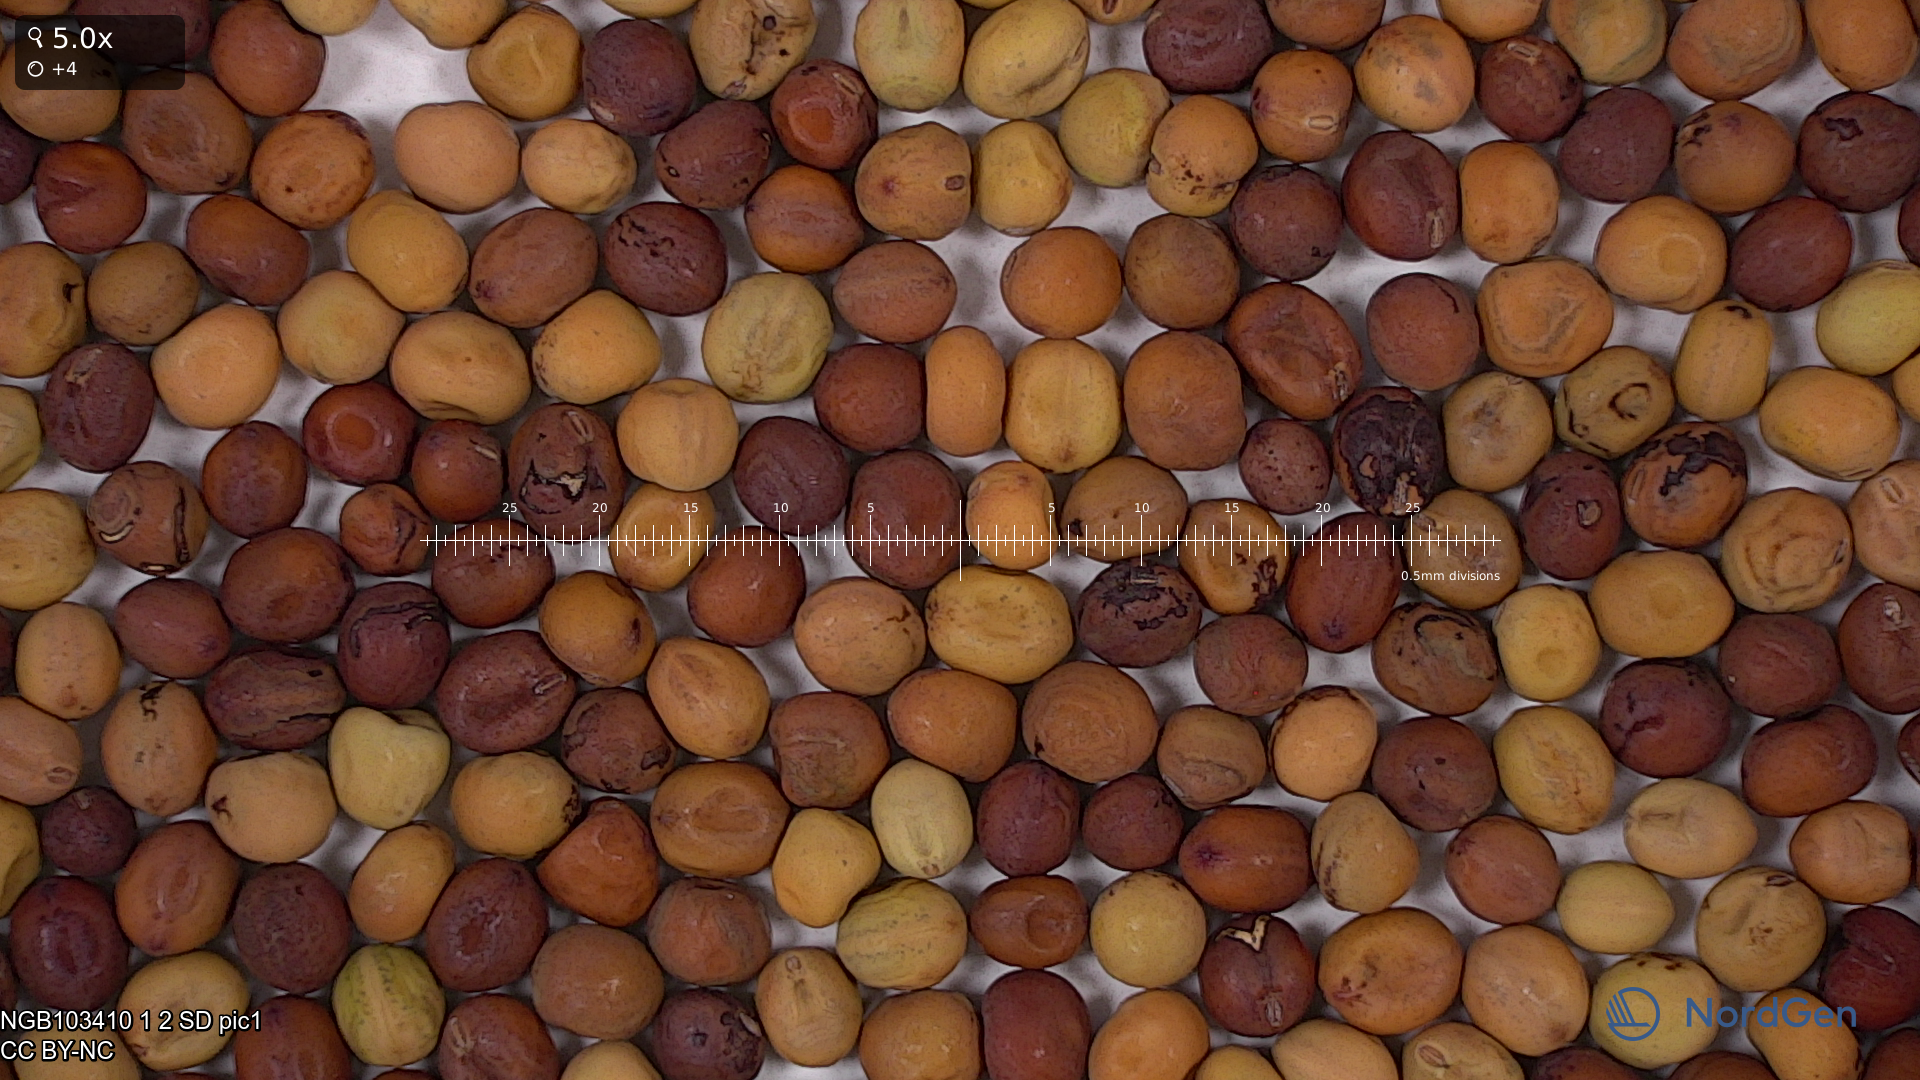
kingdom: Plantae
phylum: Tracheophyta
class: Magnoliopsida
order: Fabales
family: Fabaceae
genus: Lathyrus
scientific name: Lathyrus oleraceus
